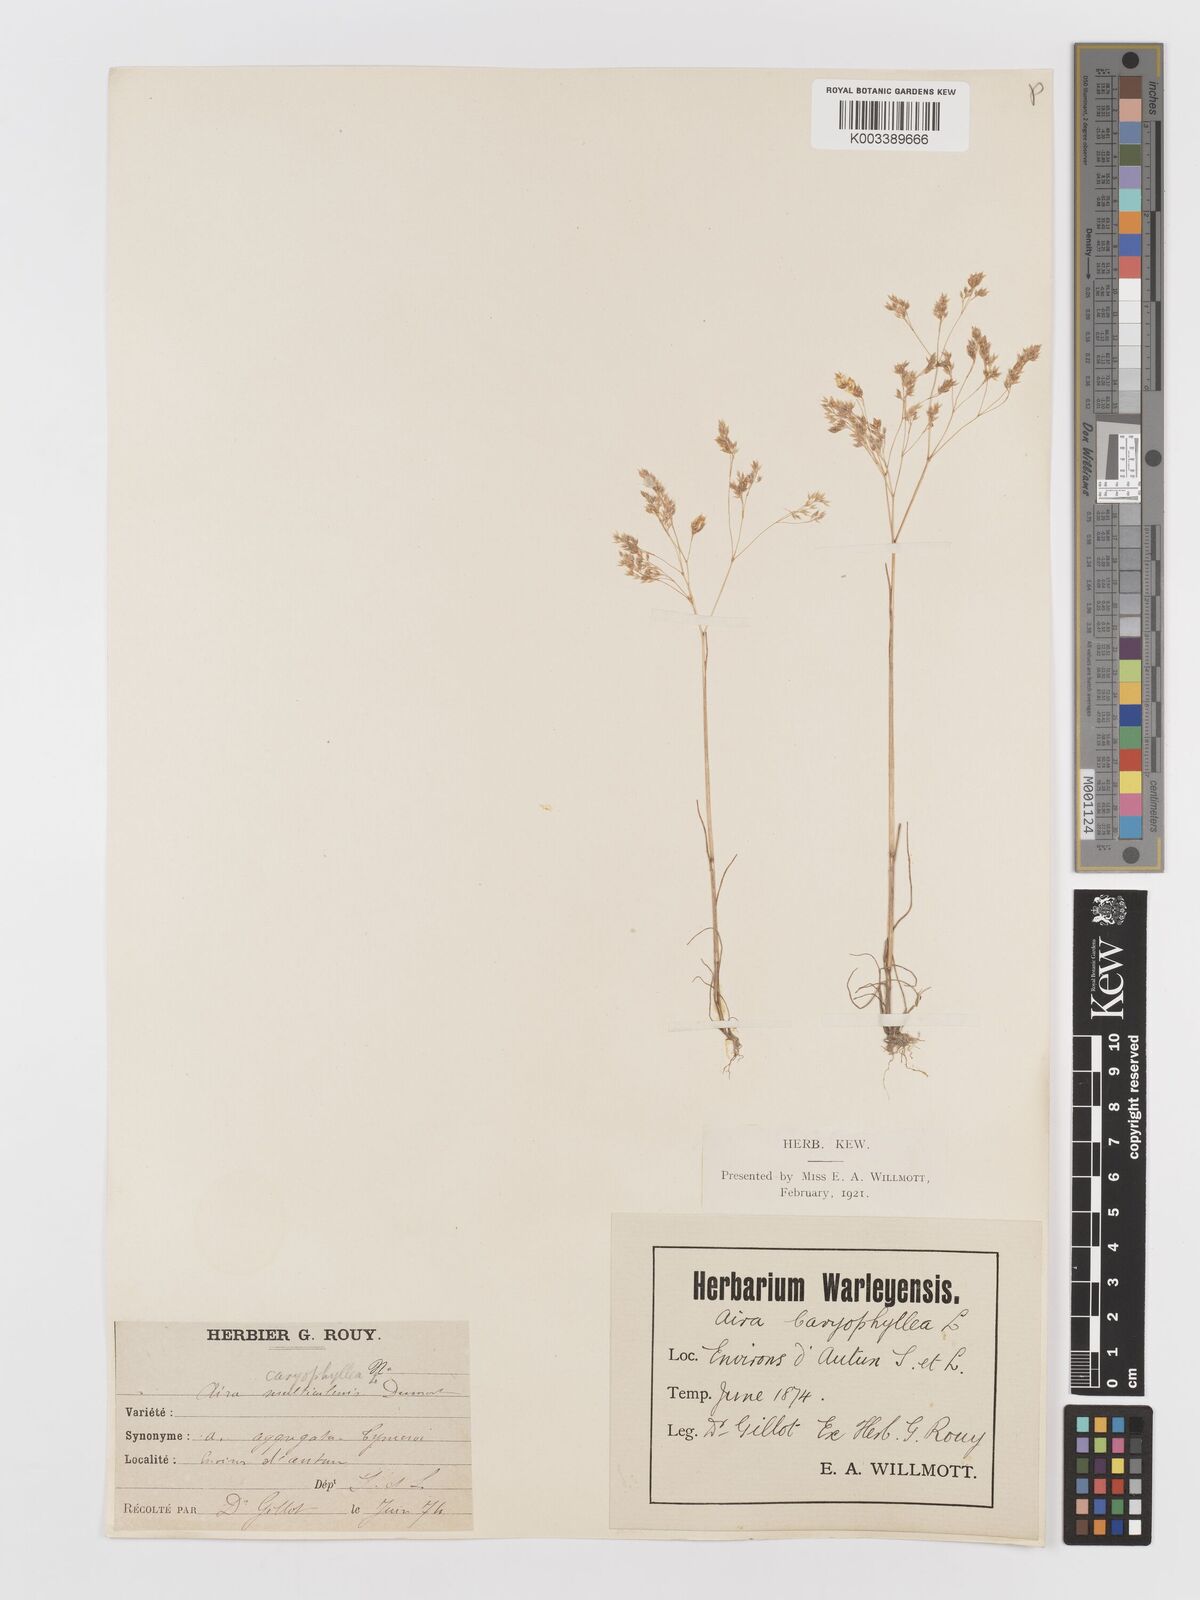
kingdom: Plantae
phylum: Tracheophyta
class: Liliopsida
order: Poales
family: Poaceae
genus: Aira
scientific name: Aira caryophyllea
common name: Silver hairgrass
